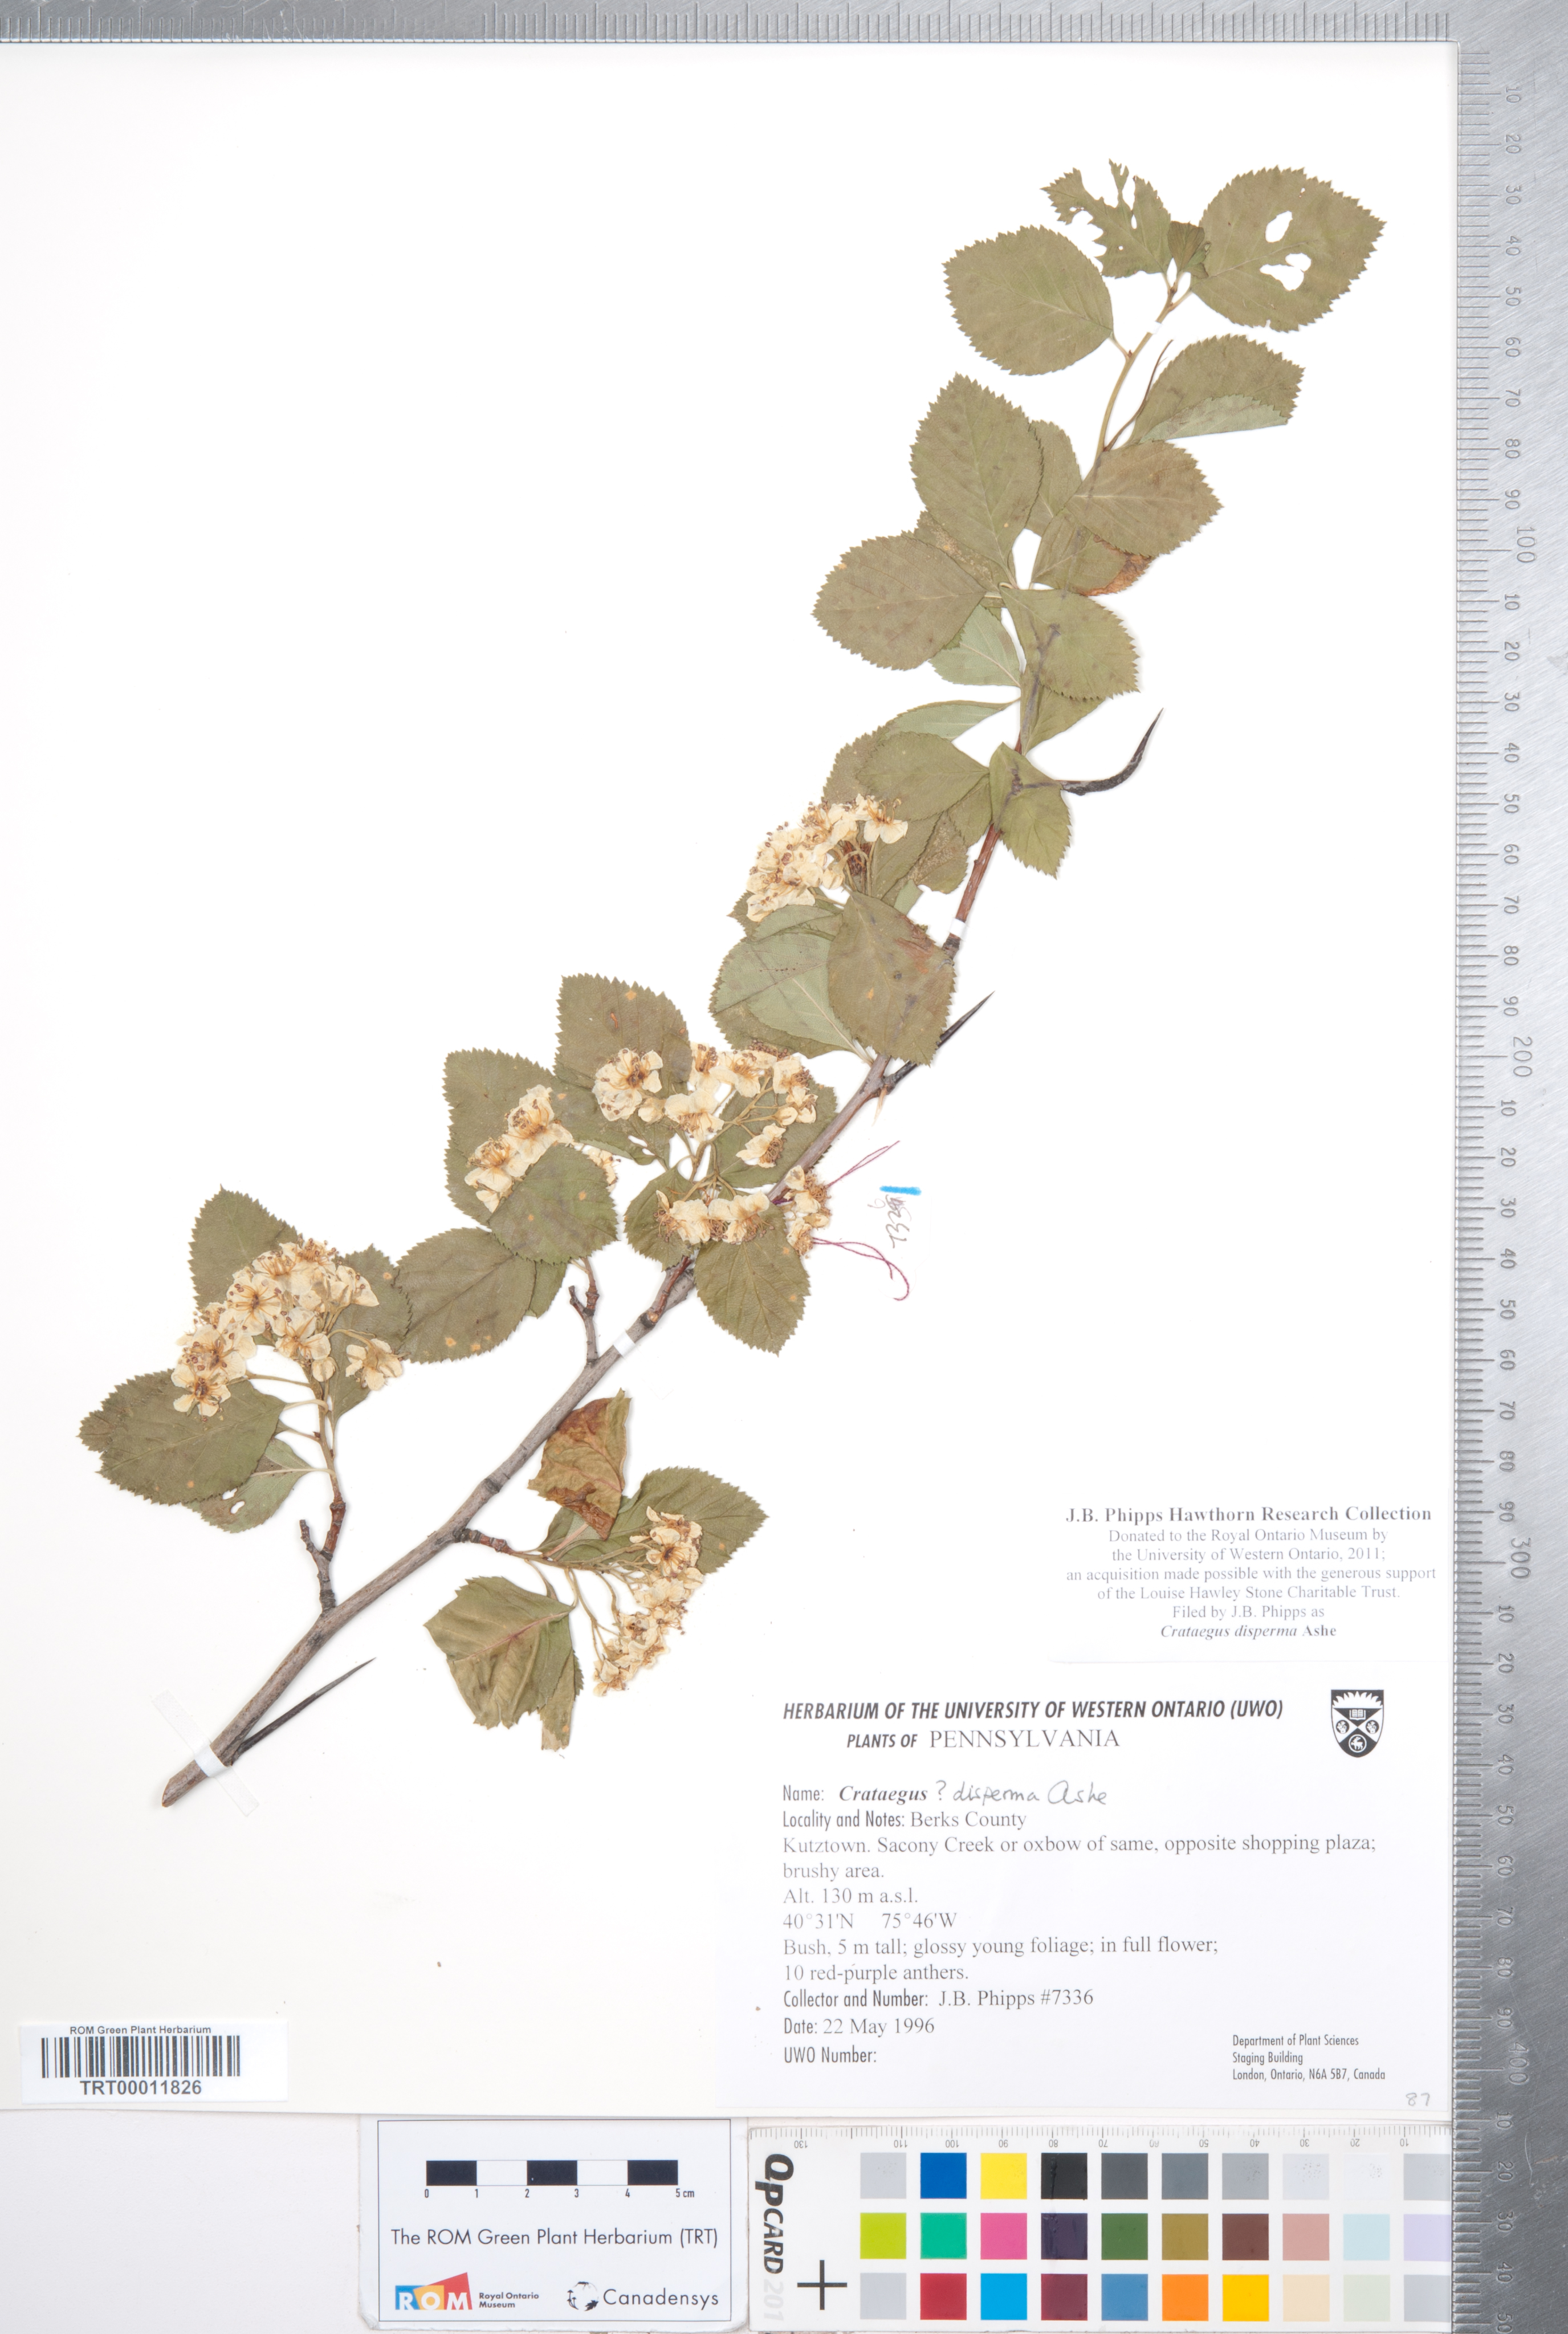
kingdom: Plantae
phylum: Tracheophyta
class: Magnoliopsida
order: Rosales
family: Rosaceae
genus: Crataegus
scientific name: Crataegus disperma
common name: Spreading hawthorn
